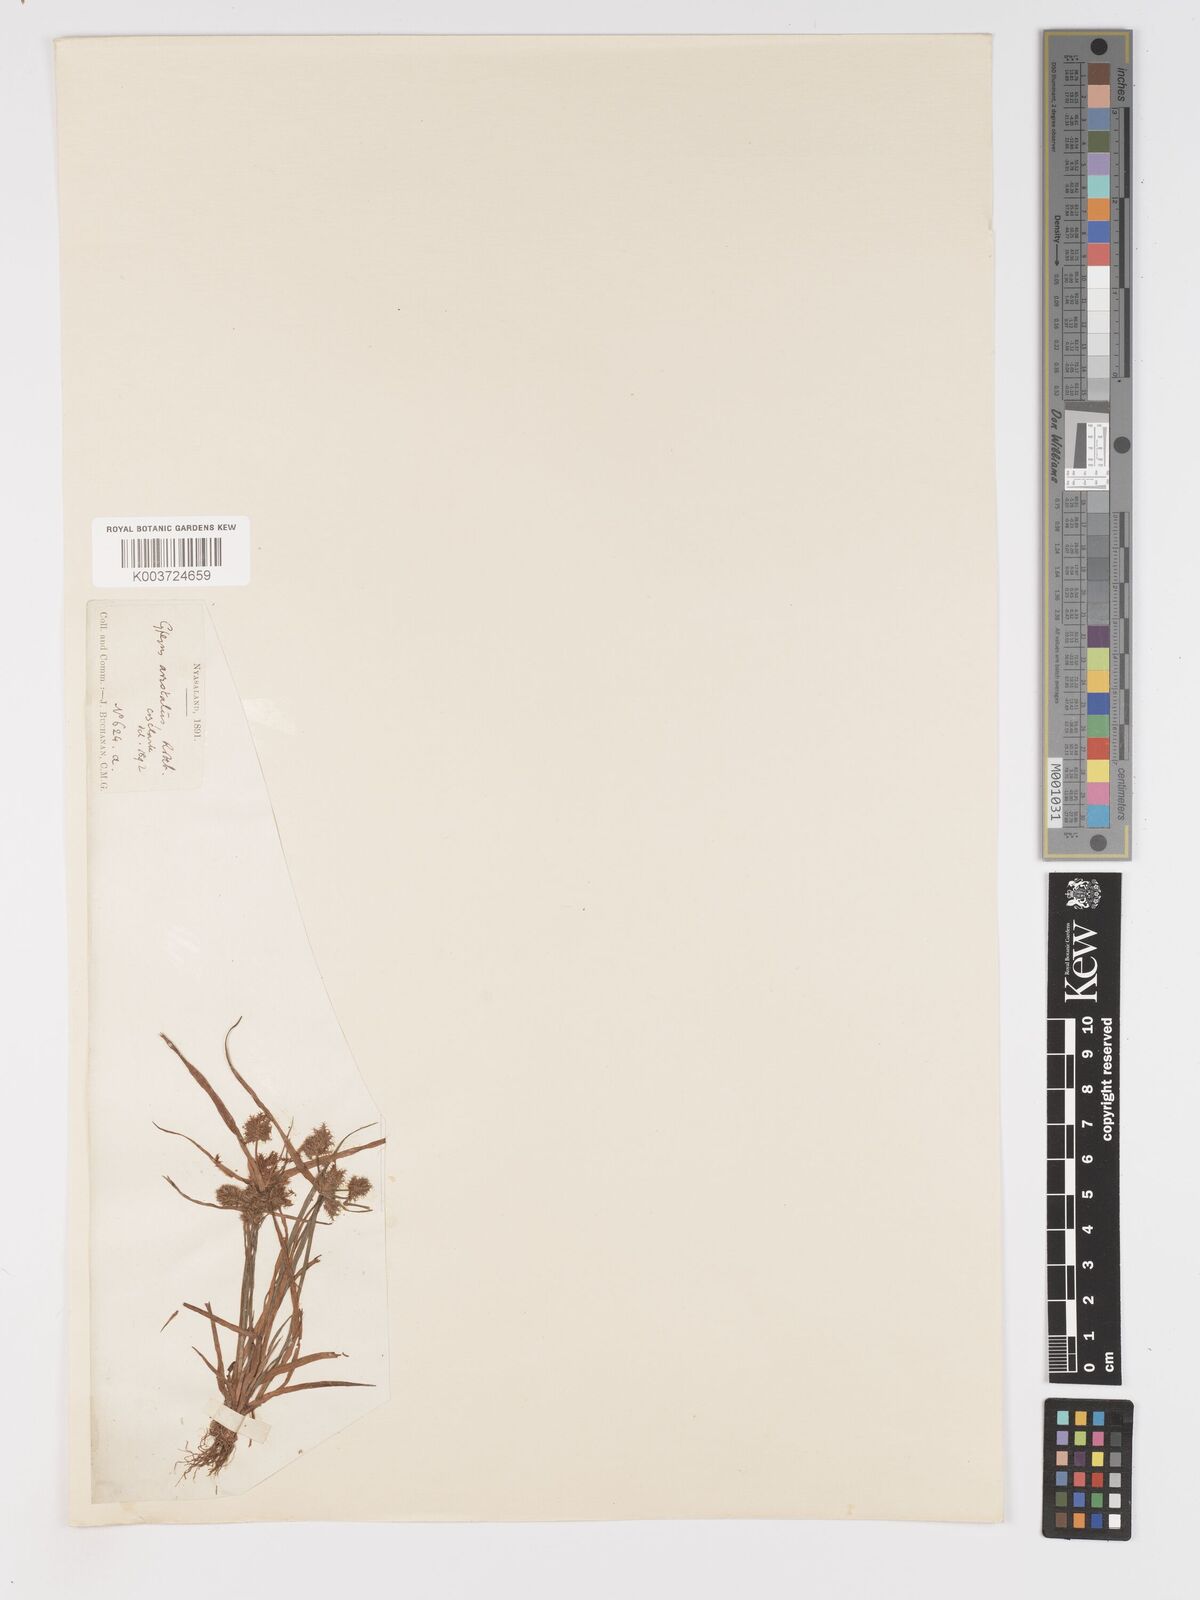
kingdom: Plantae
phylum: Tracheophyta
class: Liliopsida
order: Poales
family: Cyperaceae
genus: Cyperus
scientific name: Cyperus squarrosus
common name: Awned cyperus
